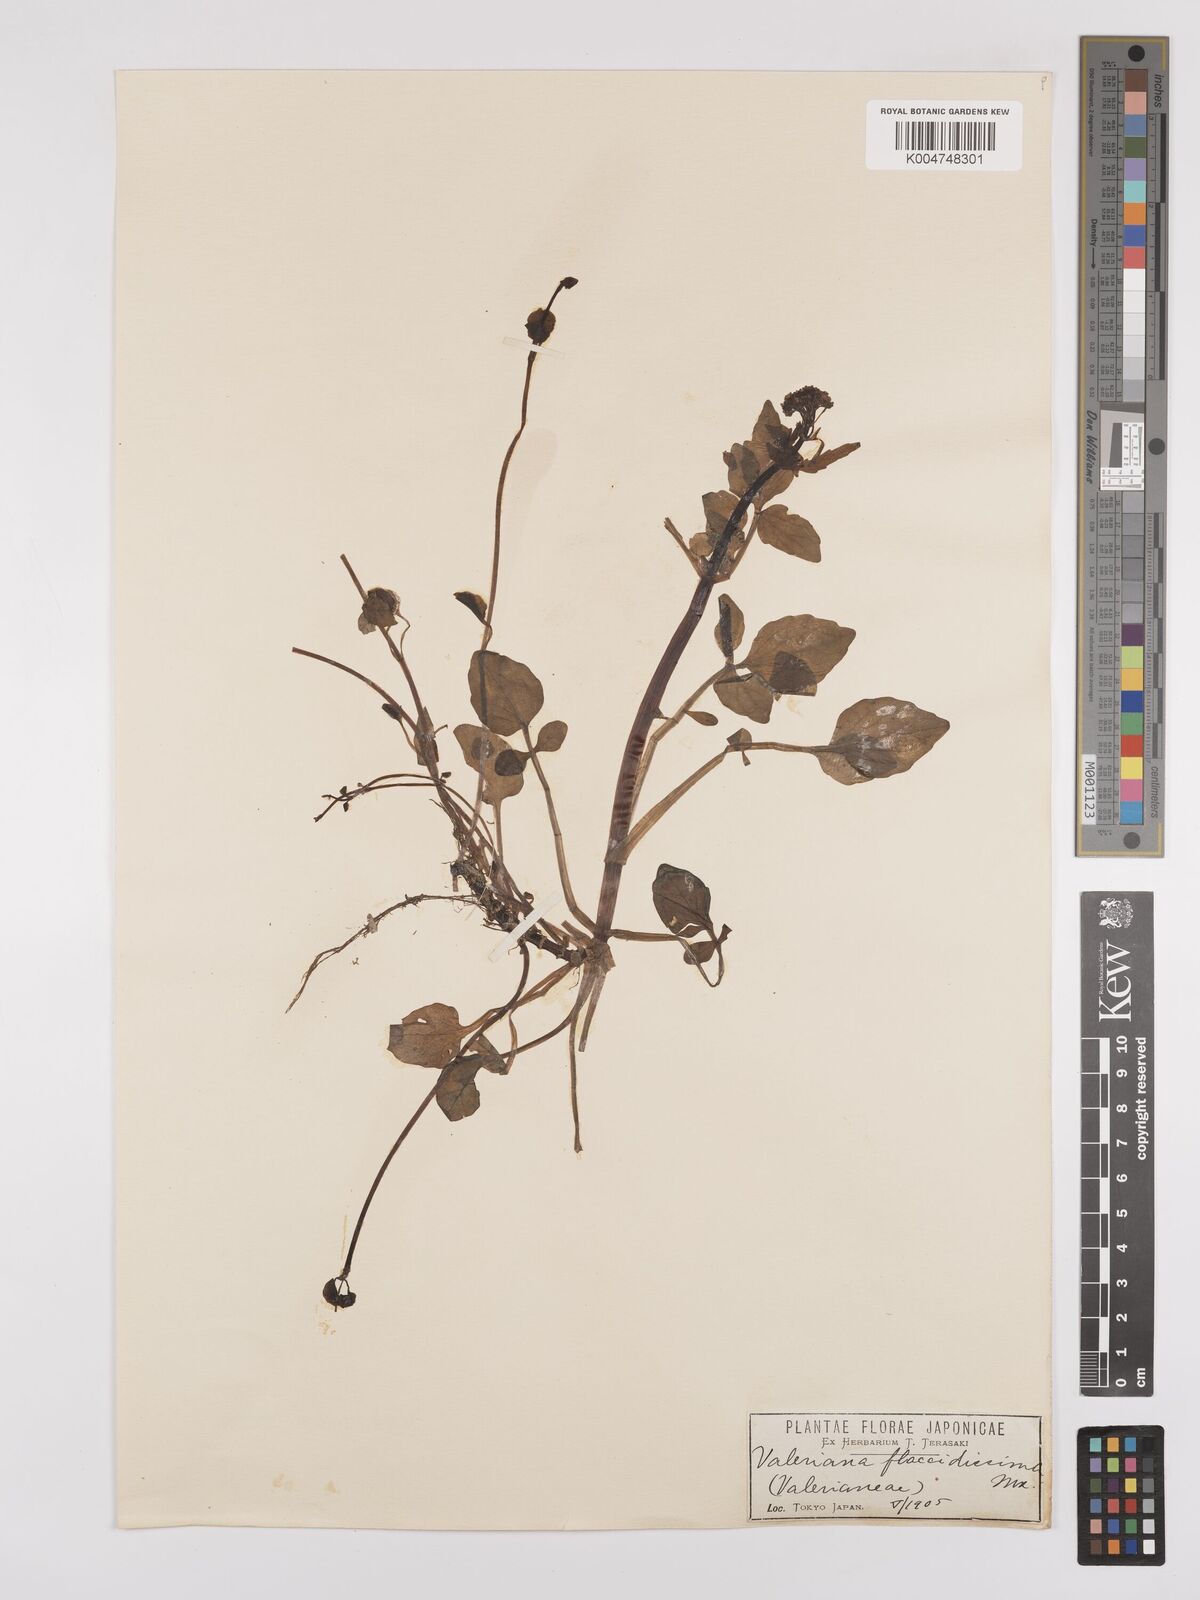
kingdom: Plantae
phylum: Tracheophyta
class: Magnoliopsida
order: Dipsacales
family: Caprifoliaceae
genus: Valeriana
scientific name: Valeriana flaccidissima
